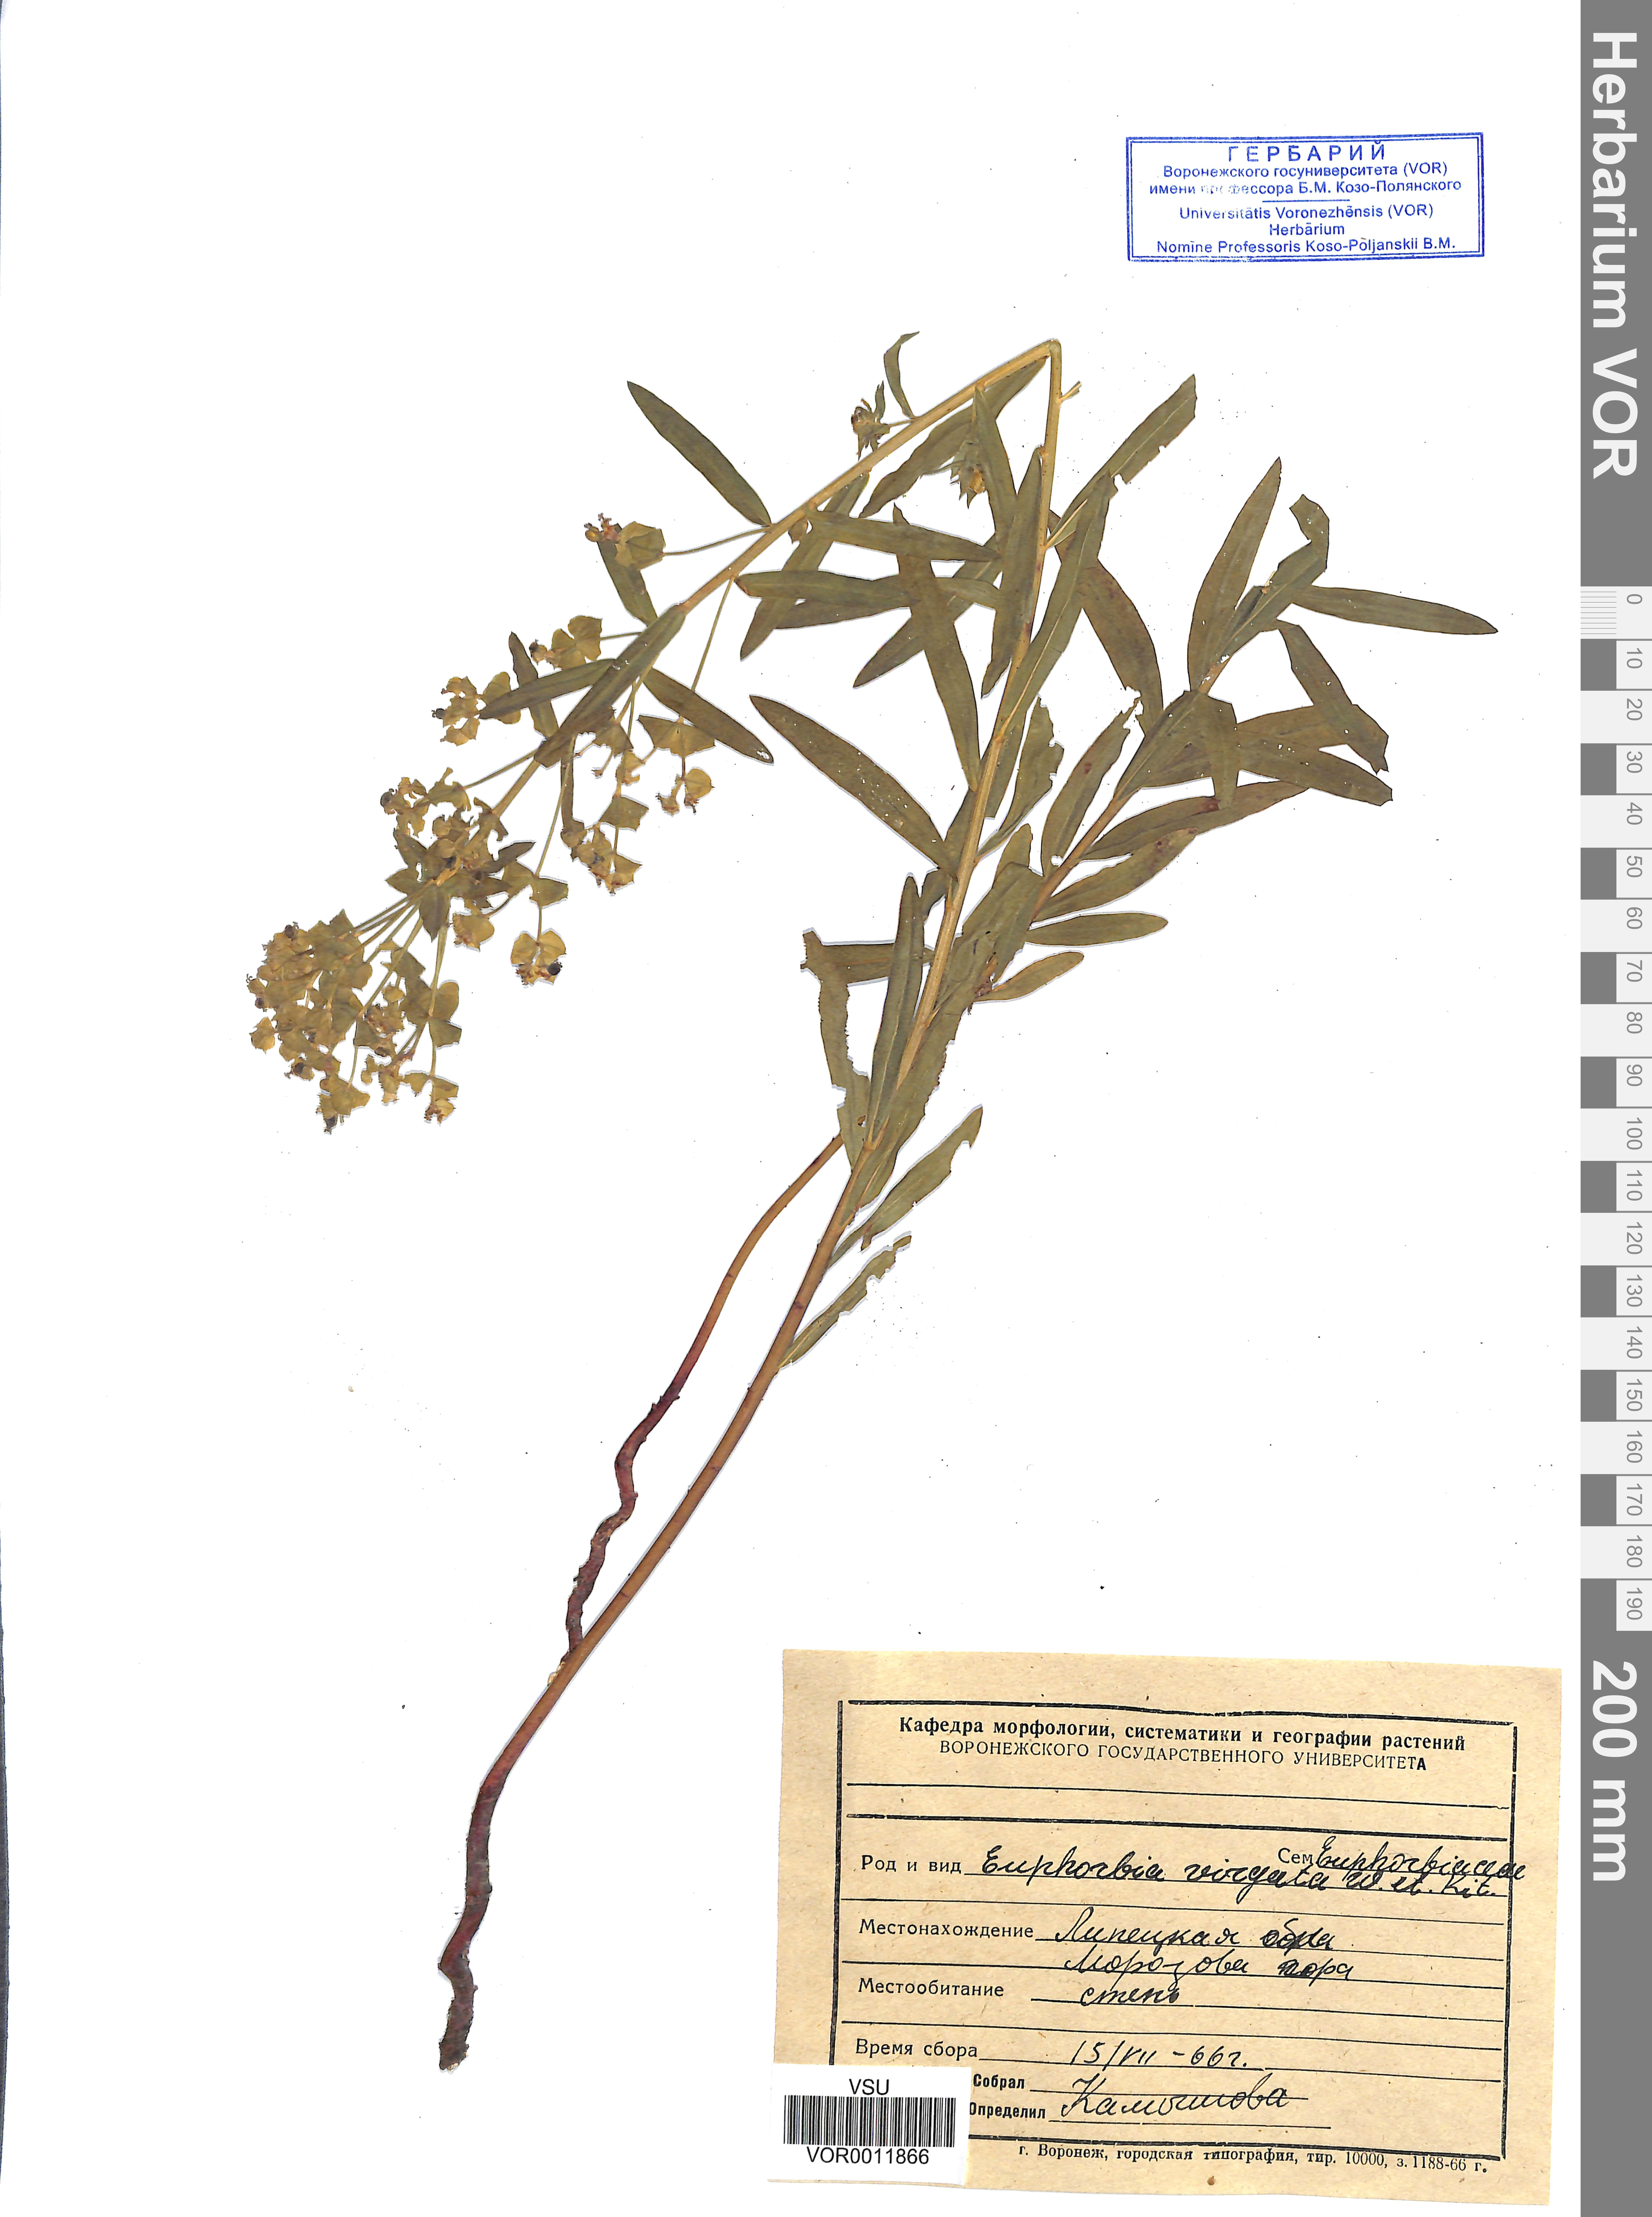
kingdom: Plantae
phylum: Tracheophyta
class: Magnoliopsida
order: Malpighiales
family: Euphorbiaceae
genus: Euphorbia
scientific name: Euphorbia virgata
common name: Leafy spurge
